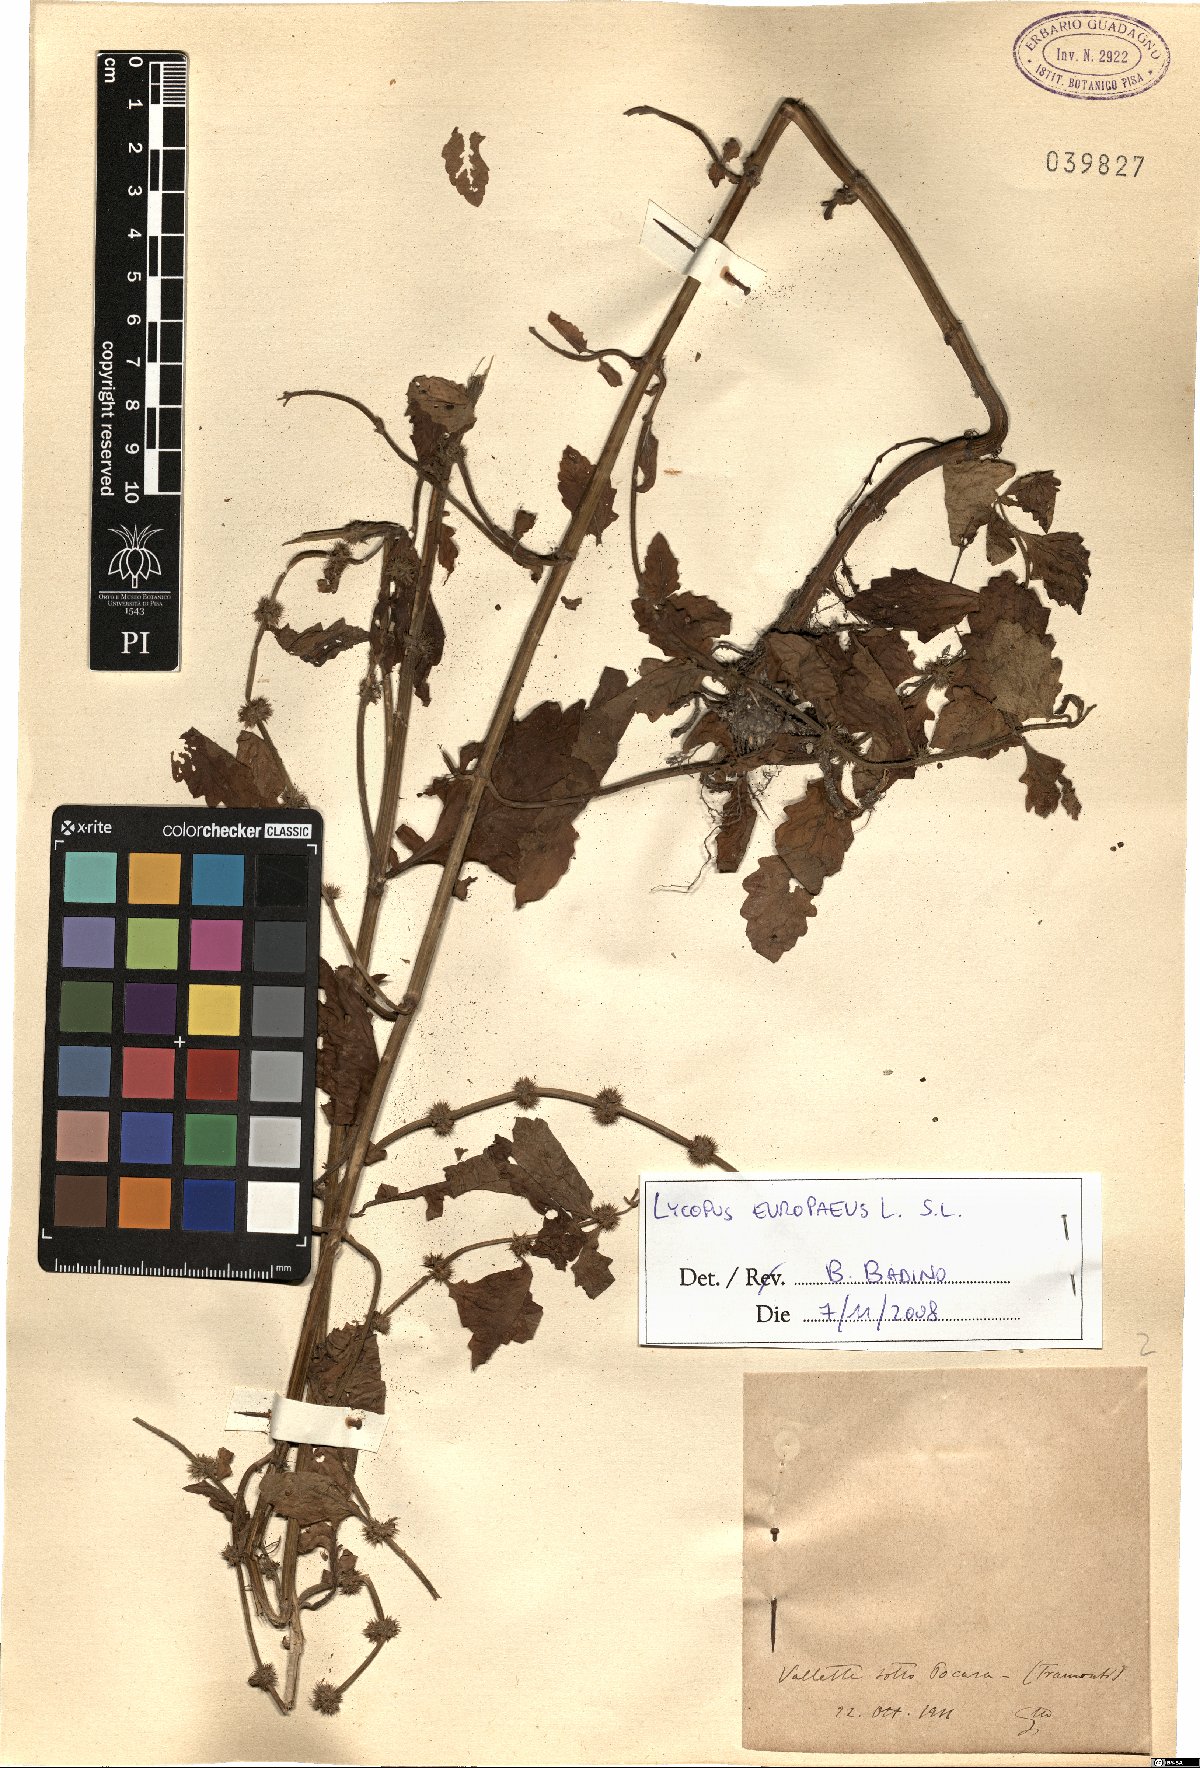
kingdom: Plantae
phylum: Tracheophyta
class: Magnoliopsida
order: Lamiales
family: Lamiaceae
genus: Lycopus
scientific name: Lycopus europaeus
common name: European bugleweed
